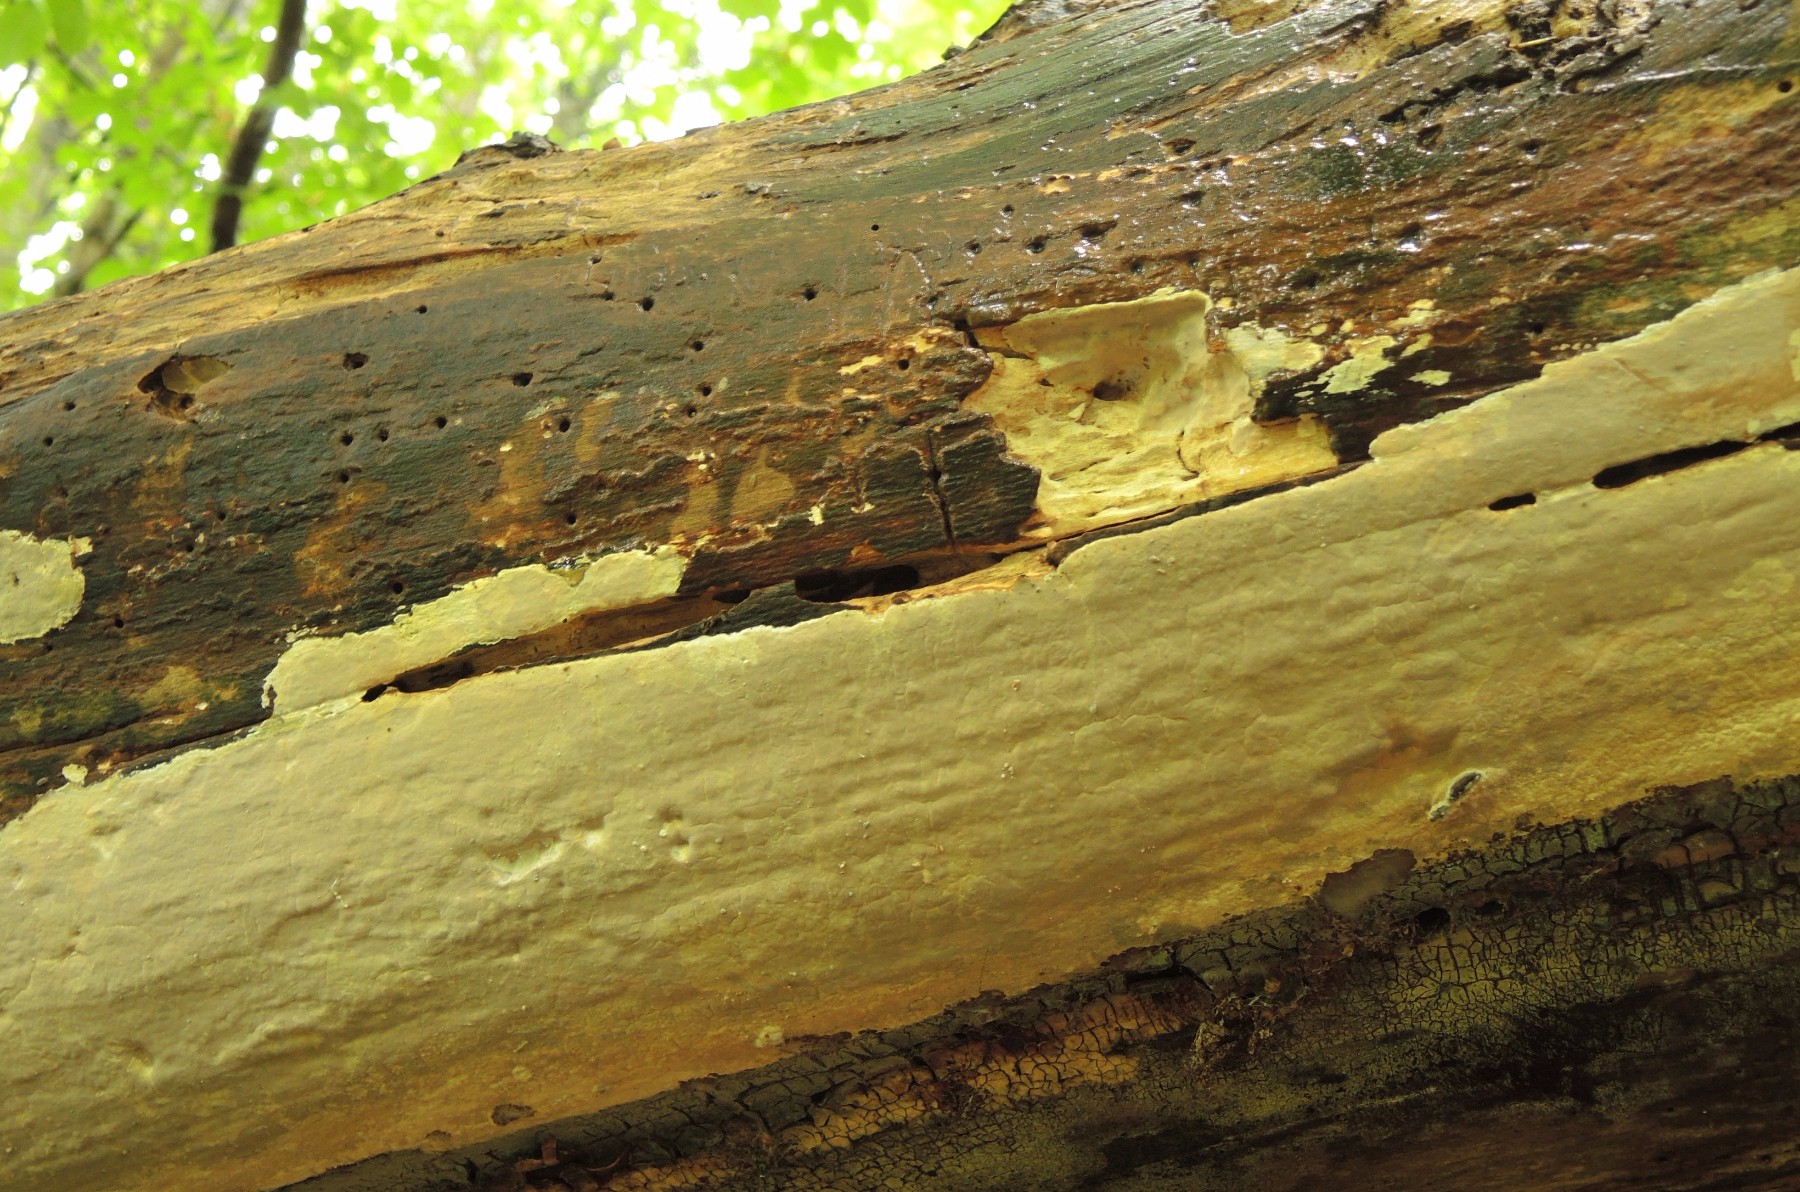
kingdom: Fungi
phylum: Basidiomycota
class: Agaricomycetes
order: Russulales
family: Peniophoraceae
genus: Scytinostroma
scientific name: Scytinostroma hemidichophyticum
